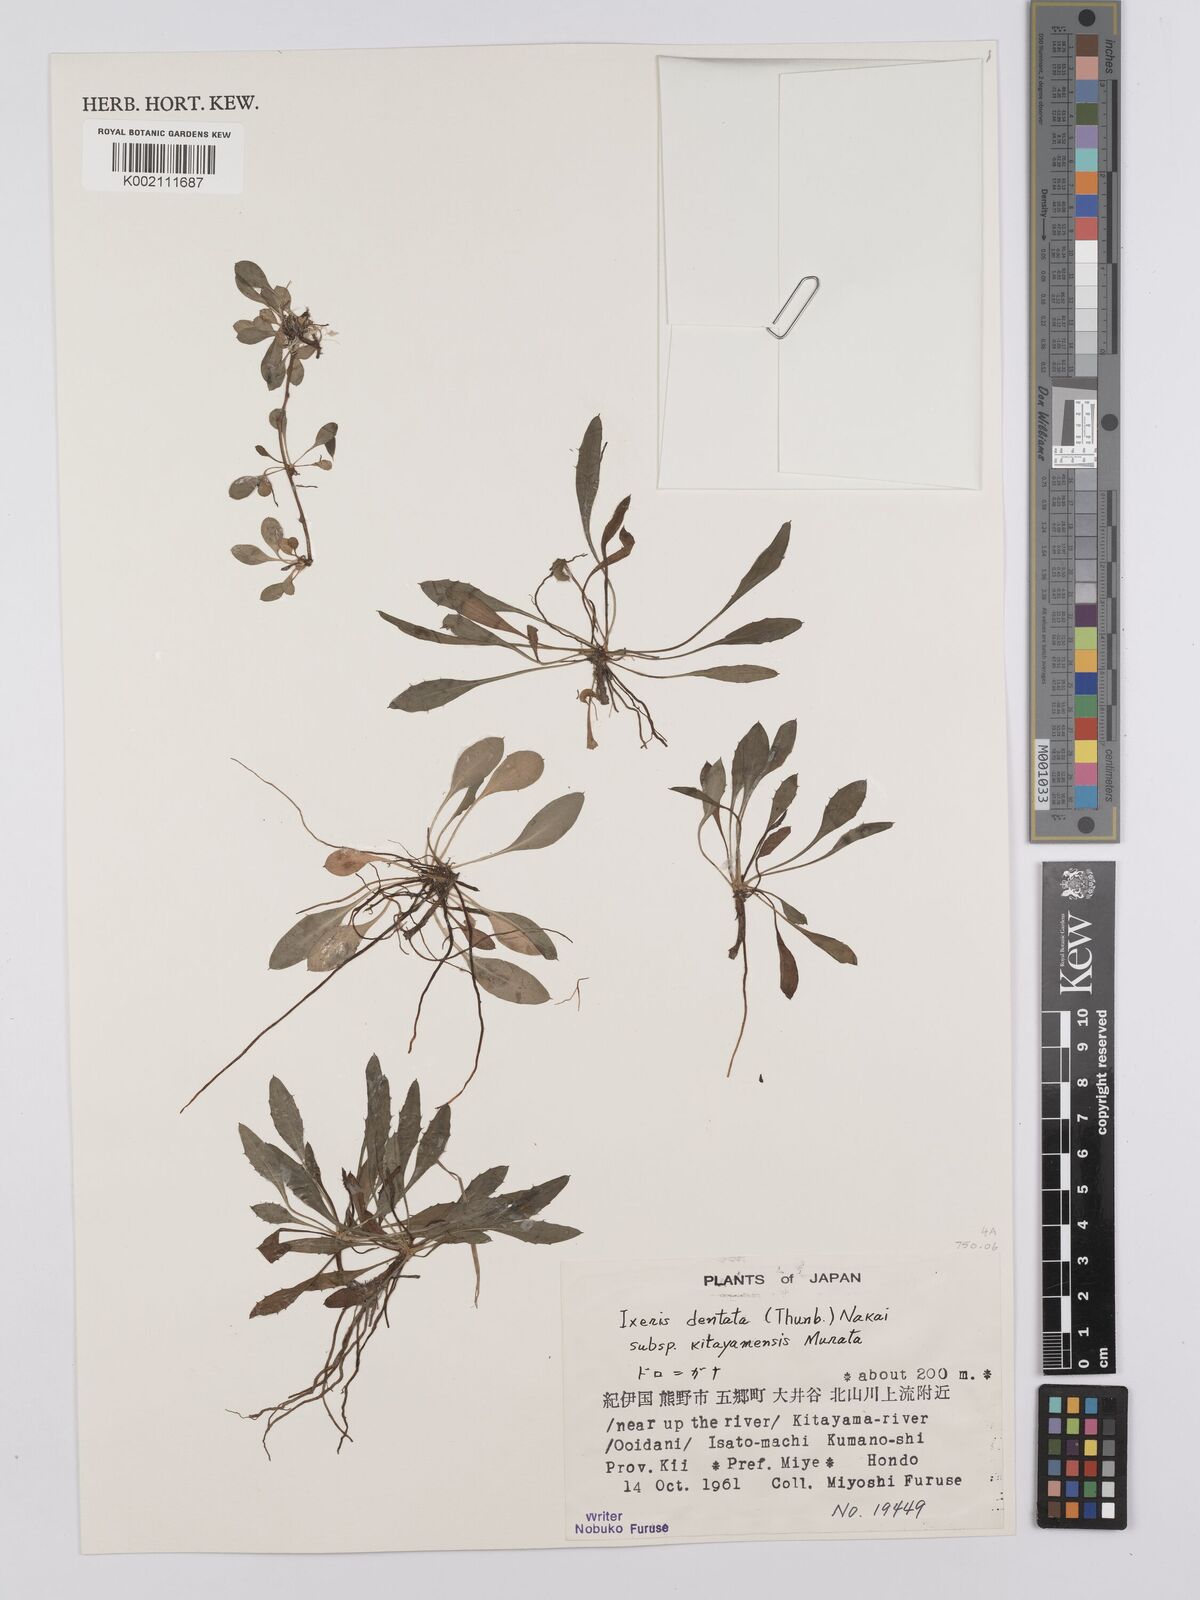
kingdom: Plantae
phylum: Tracheophyta
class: Magnoliopsida
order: Asterales
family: Asteraceae
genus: Ixeridium
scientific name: Ixeridium dentatum
